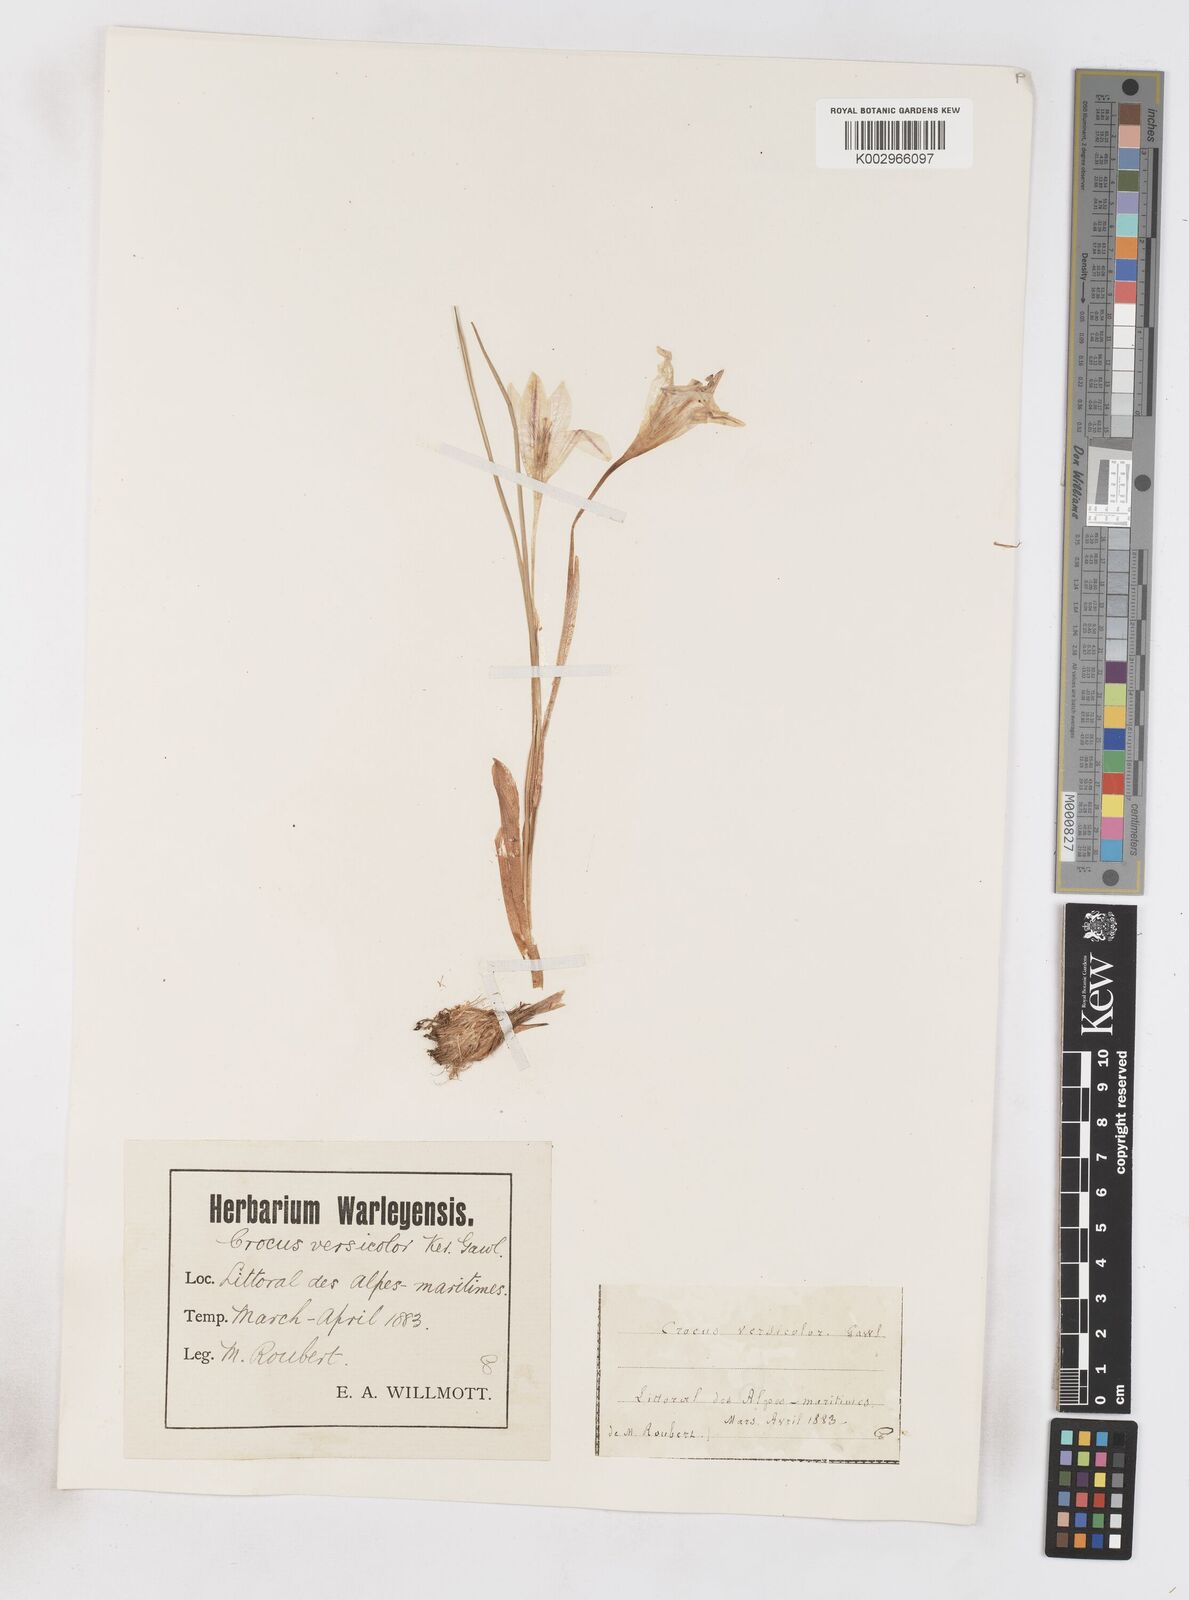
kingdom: Plantae
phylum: Tracheophyta
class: Liliopsida
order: Asparagales
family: Iridaceae
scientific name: Iridaceae
